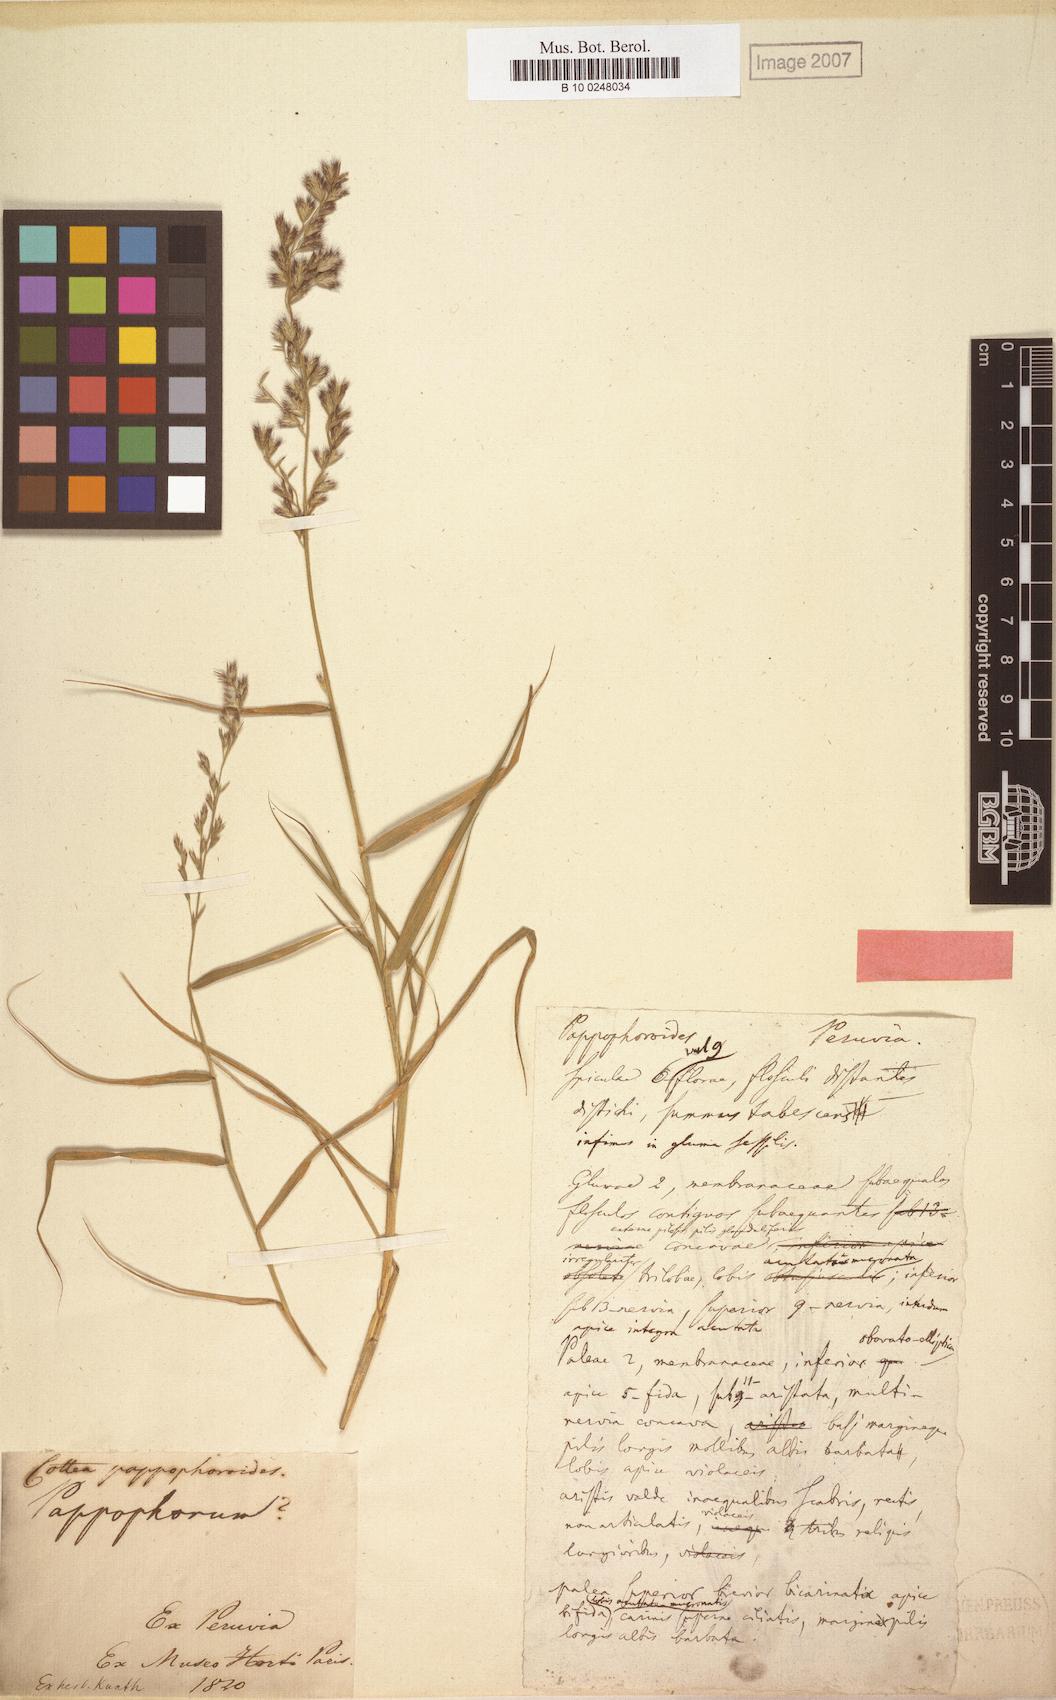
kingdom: Plantae
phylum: Tracheophyta
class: Liliopsida
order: Poales
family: Poaceae
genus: Cottea
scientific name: Cottea pappophoroides
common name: Cotta grass
